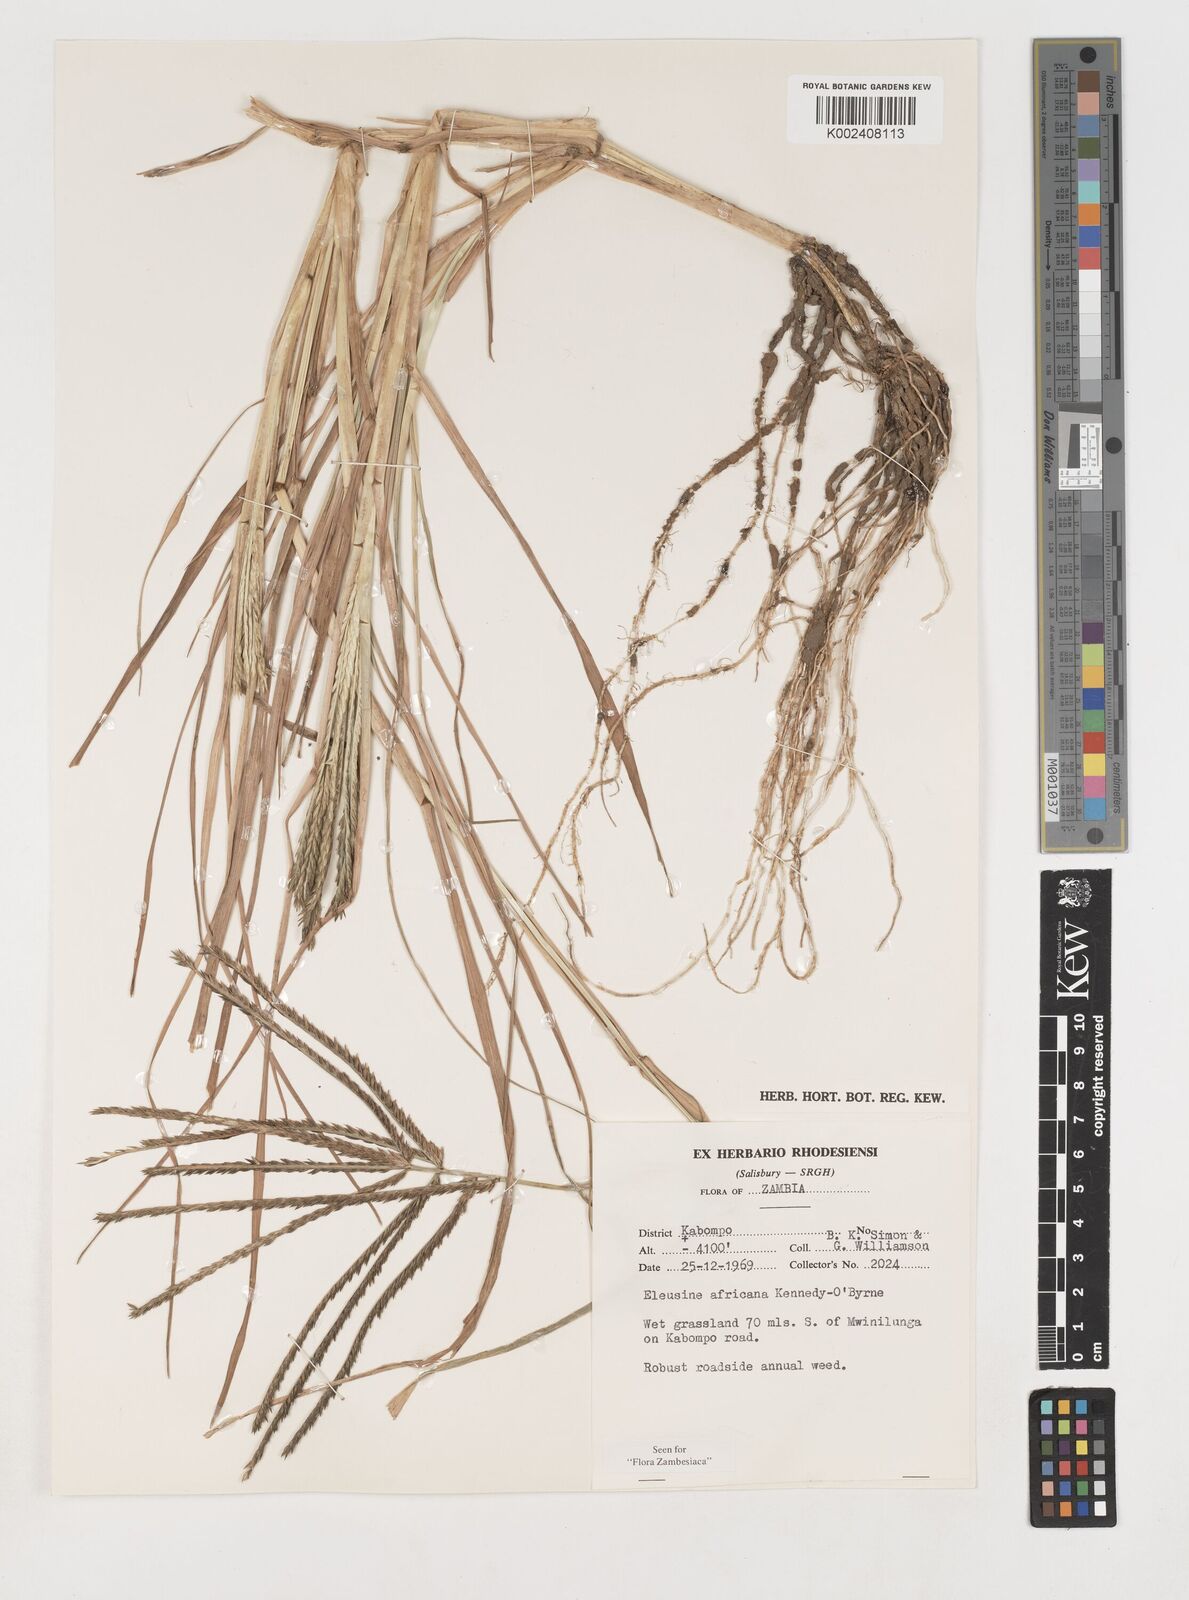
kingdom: Plantae
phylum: Tracheophyta
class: Liliopsida
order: Poales
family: Poaceae
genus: Eleusine
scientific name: Eleusine africana
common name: Wild african finger millet
